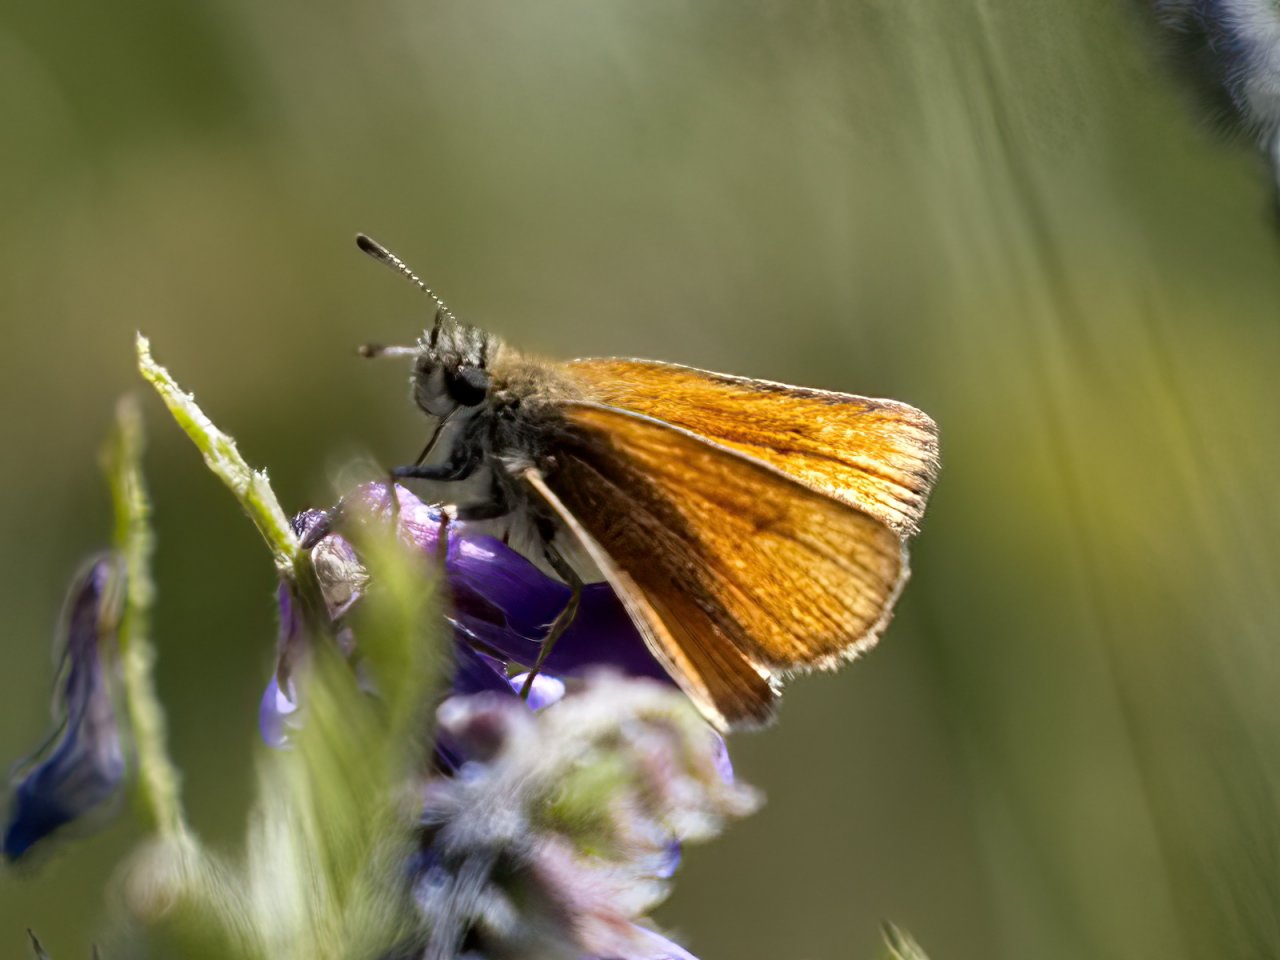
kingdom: Animalia
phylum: Arthropoda
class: Insecta
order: Lepidoptera
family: Hesperiidae
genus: Thymelicus
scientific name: Thymelicus lineola
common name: European Skipper
